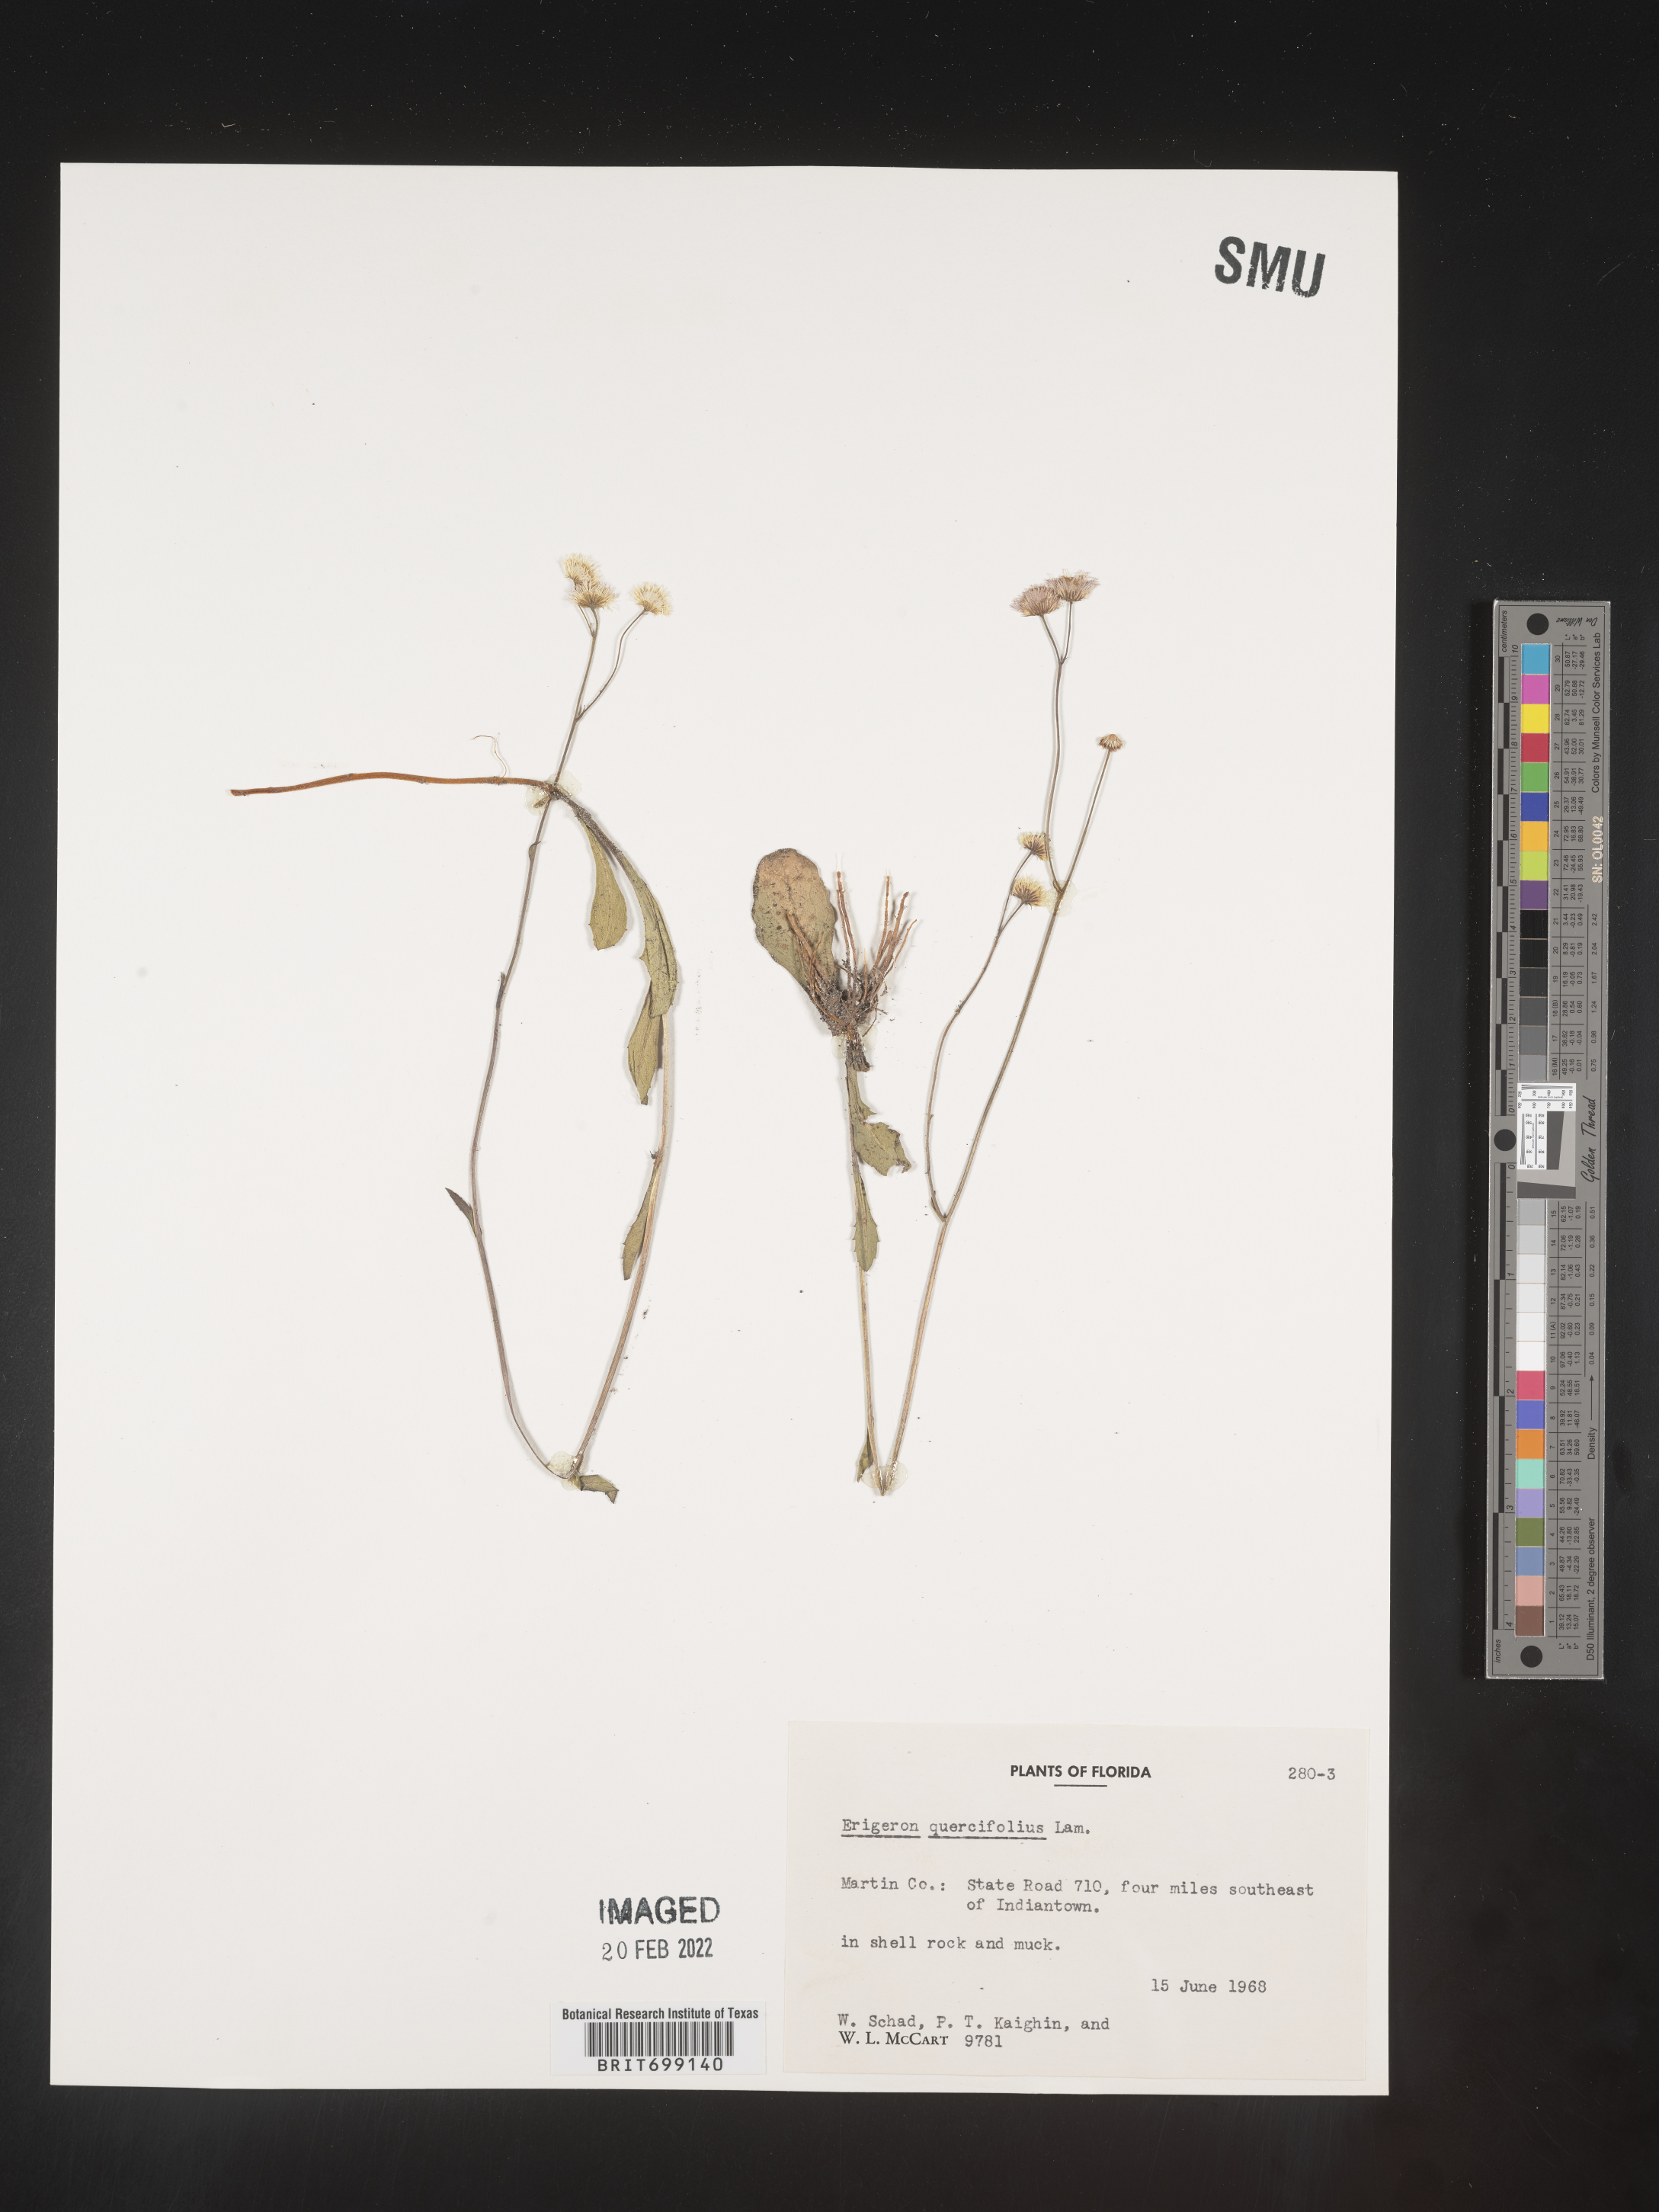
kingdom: Plantae
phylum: Tracheophyta
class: Magnoliopsida
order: Asterales
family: Asteraceae
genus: Erigeron
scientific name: Erigeron quercifolius
